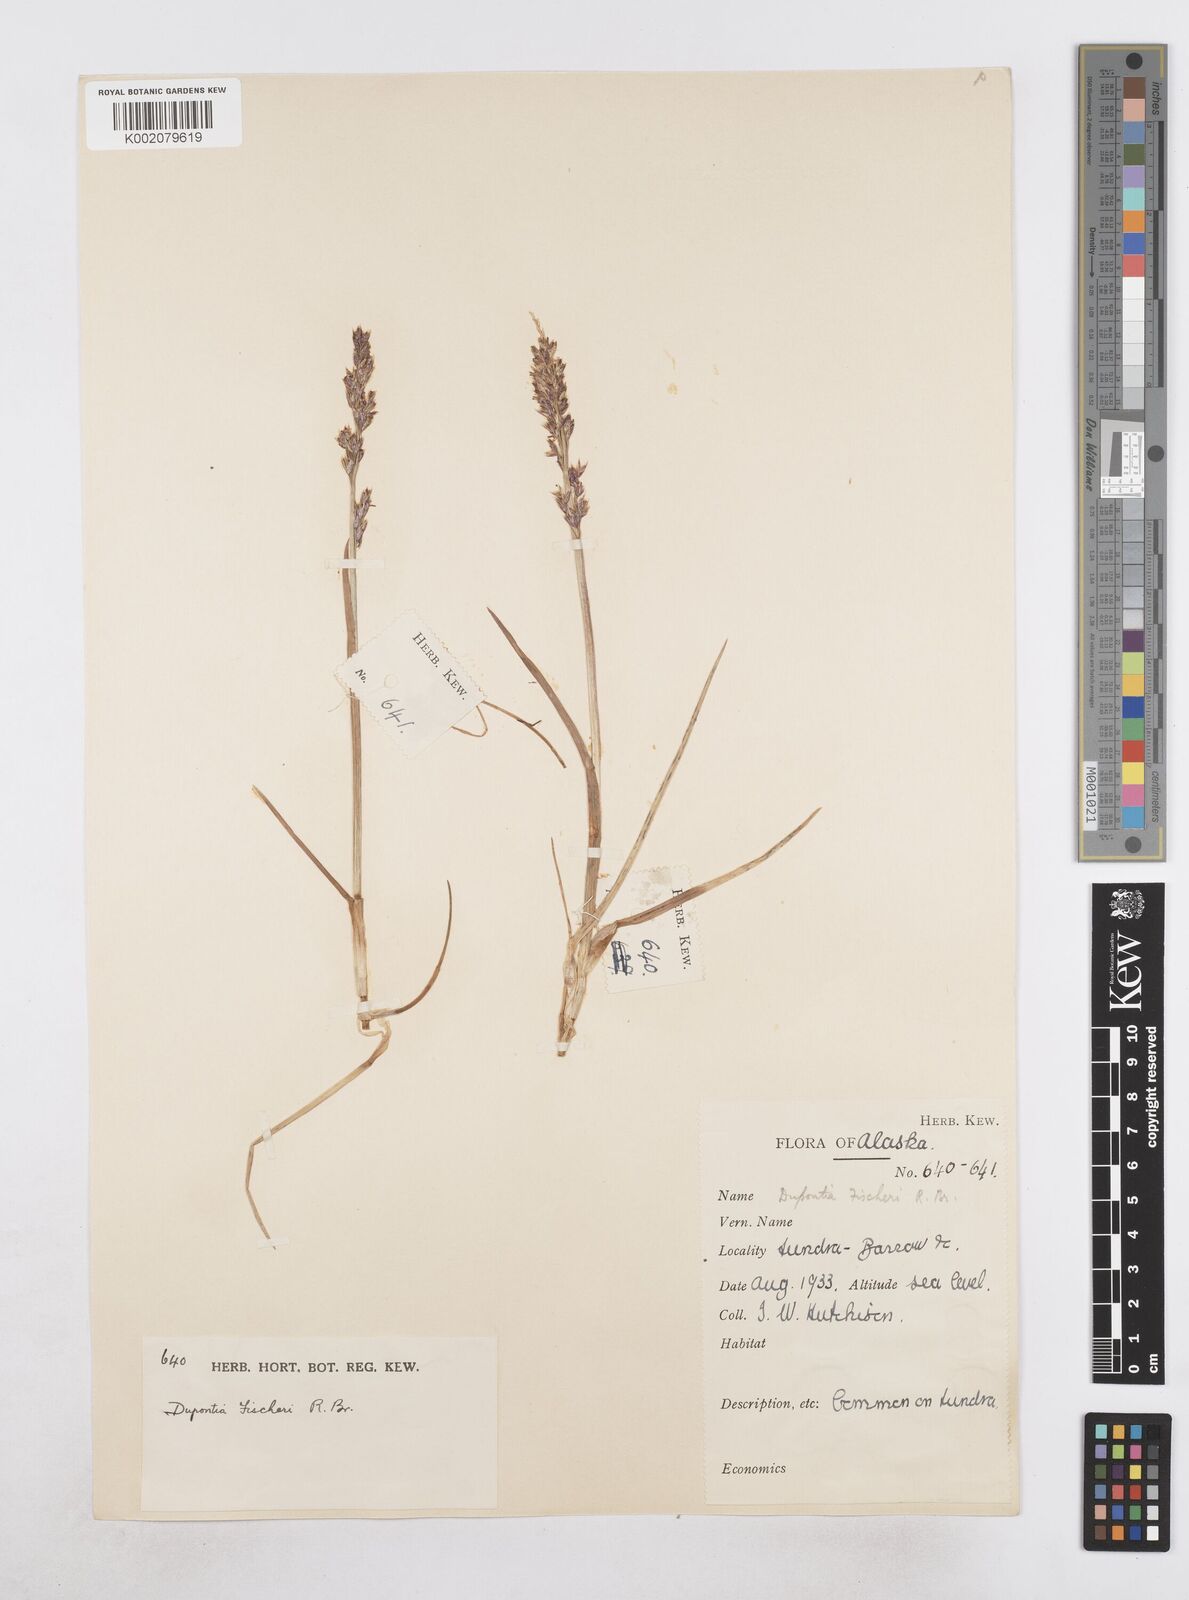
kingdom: Plantae
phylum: Tracheophyta
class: Liliopsida
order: Poales
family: Poaceae
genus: Dupontia
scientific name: Dupontia fisheri
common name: Tundra grass
